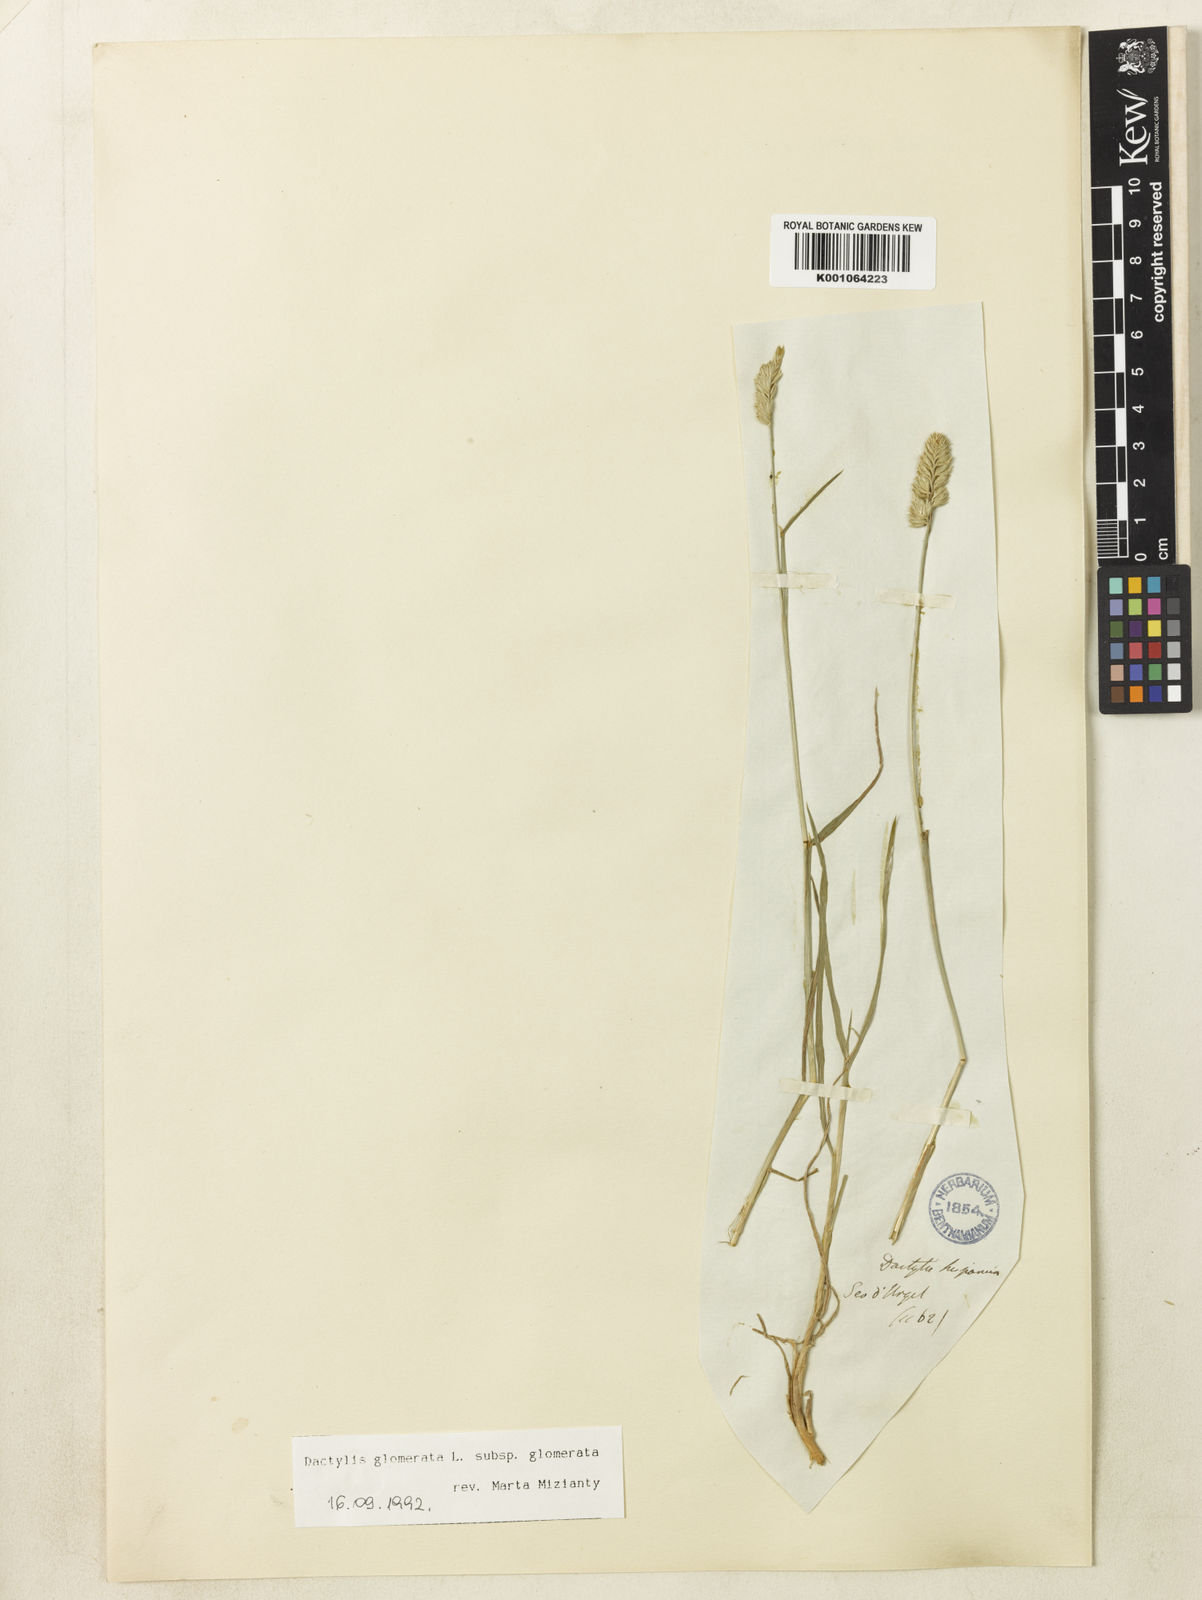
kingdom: Plantae
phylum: Tracheophyta
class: Liliopsida
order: Poales
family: Poaceae
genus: Dactylis
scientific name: Dactylis glomerata
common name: Orchardgrass
